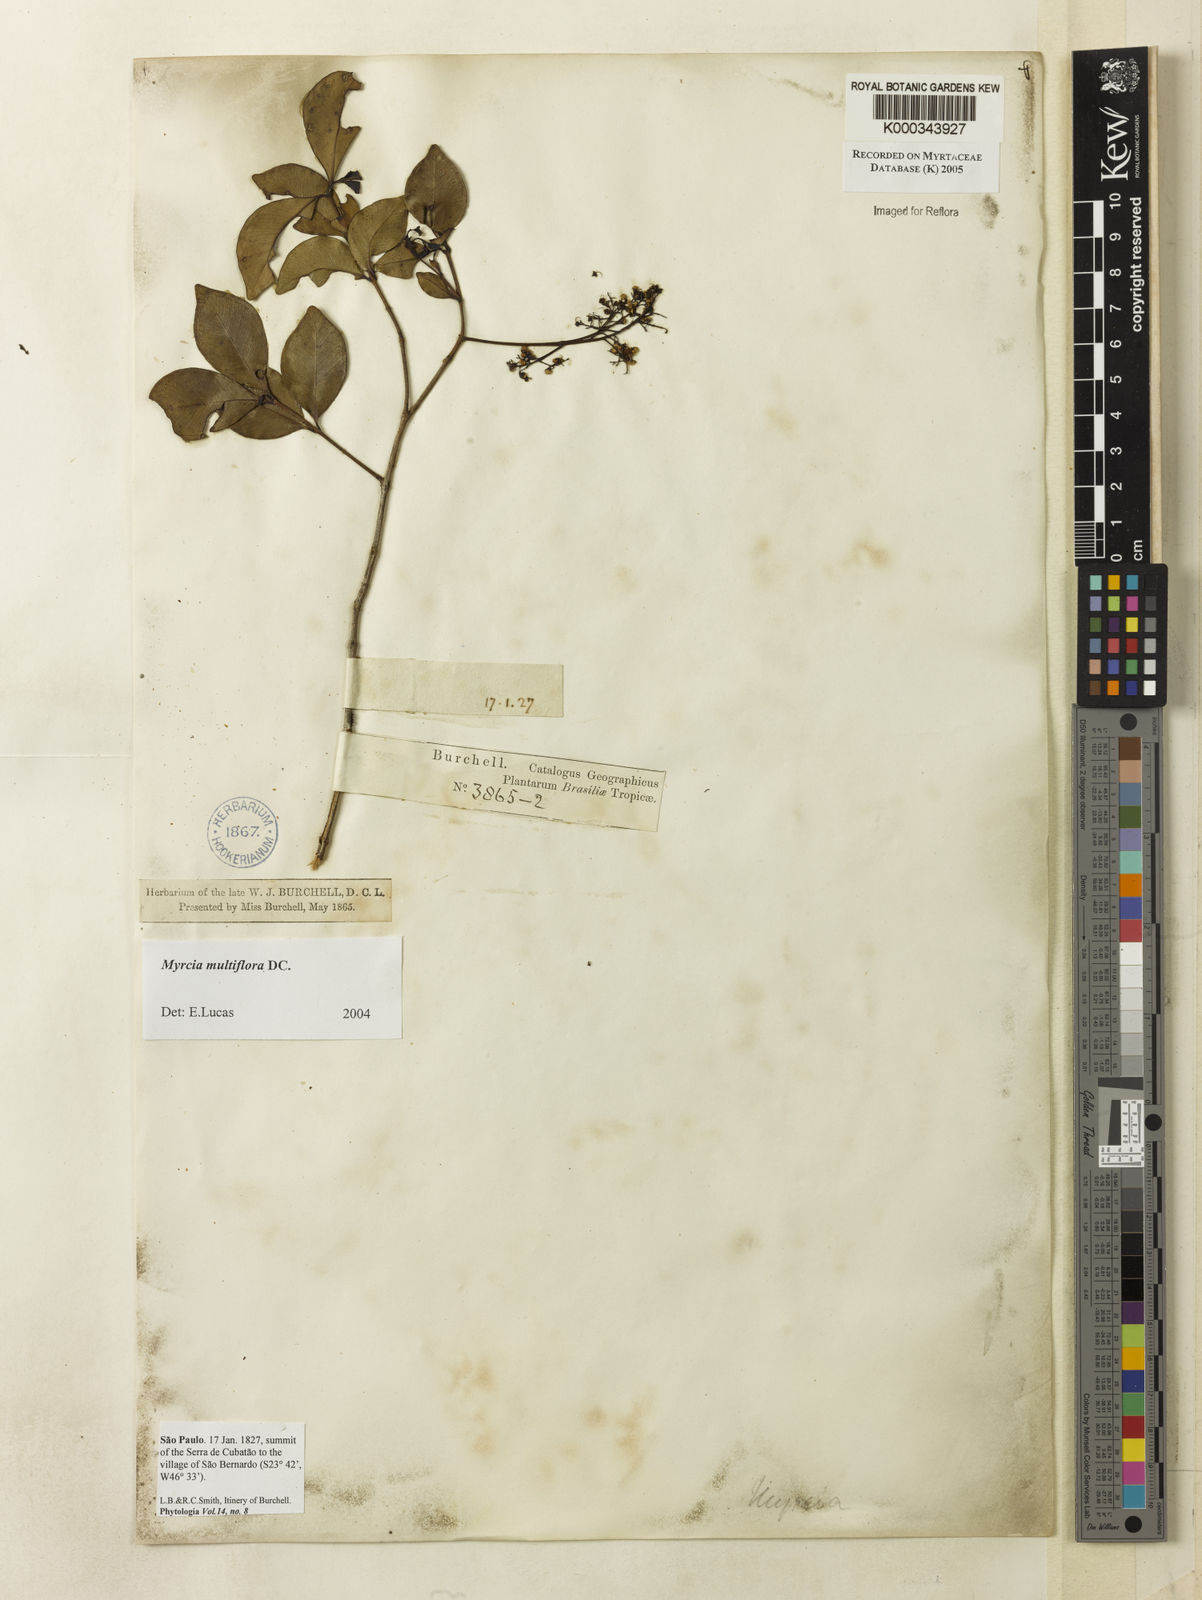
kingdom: Plantae
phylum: Tracheophyta
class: Magnoliopsida
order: Myrtales
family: Myrtaceae
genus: Myrcia
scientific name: Myrcia multiflora
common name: Pedra hume
